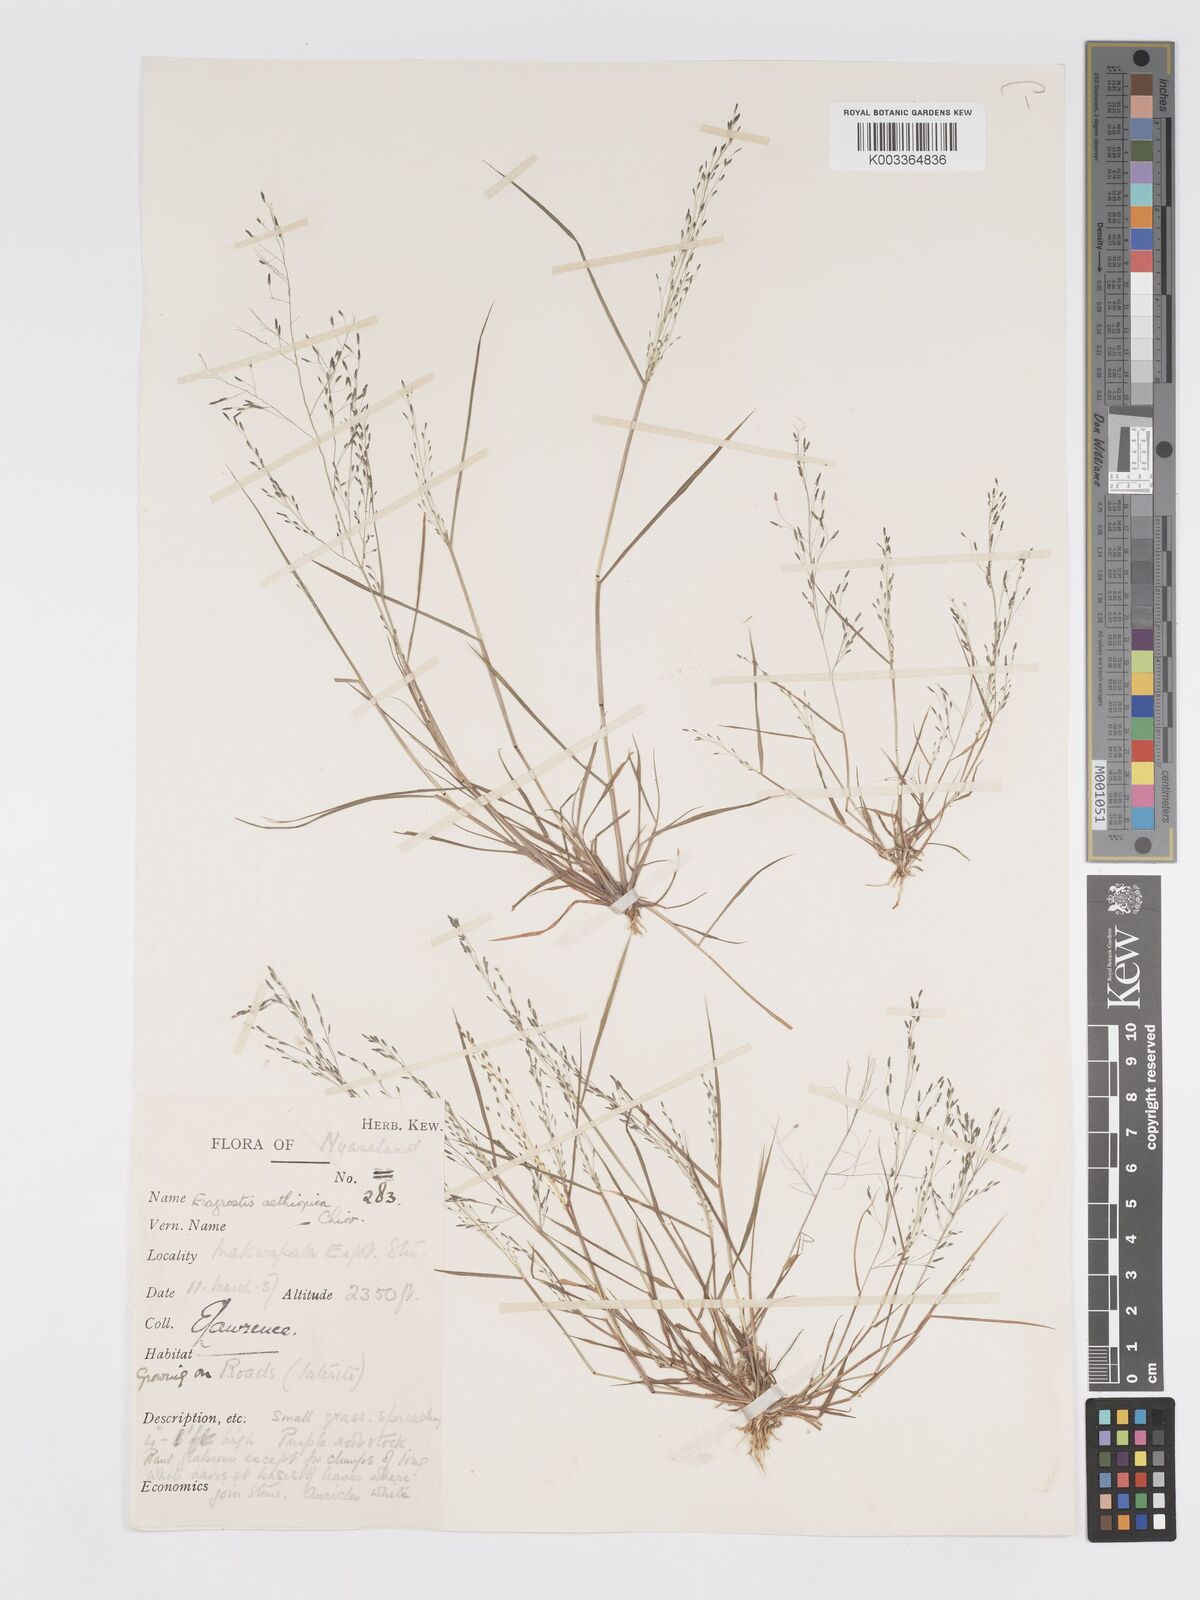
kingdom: Plantae
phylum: Tracheophyta
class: Liliopsida
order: Poales
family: Poaceae
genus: Eragrostis
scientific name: Eragrostis aethiopica
